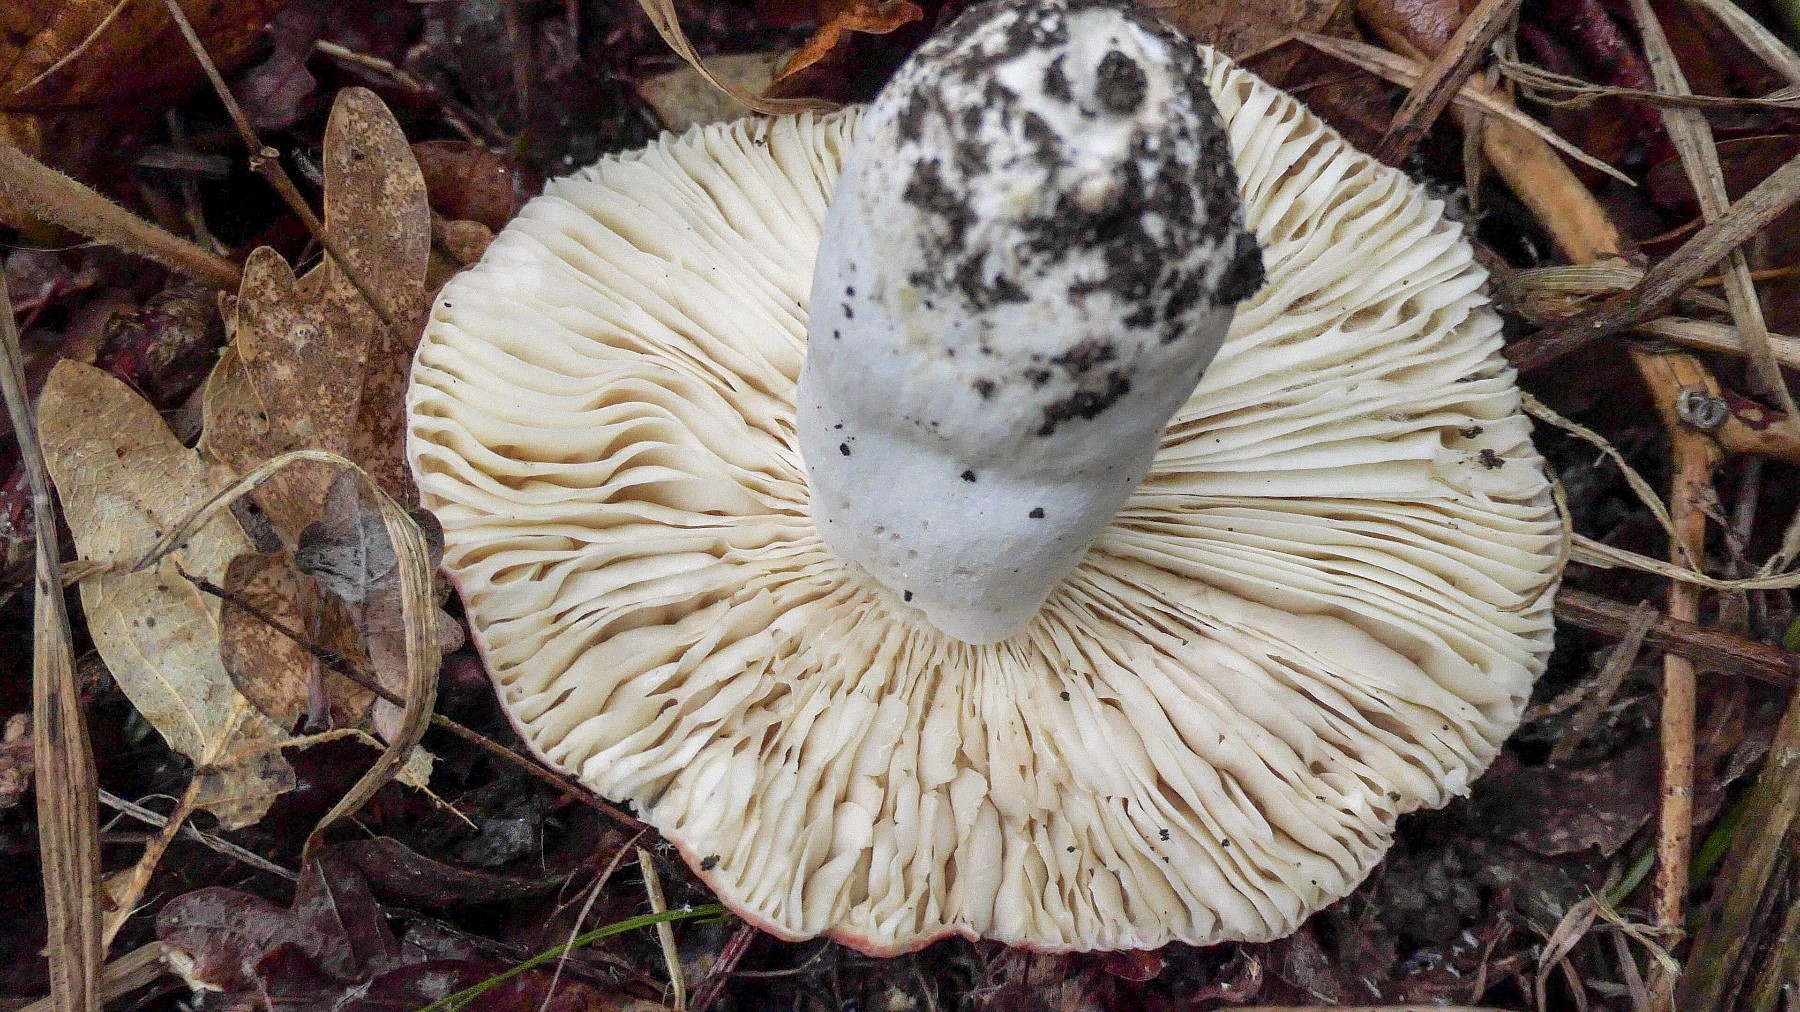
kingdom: Fungi
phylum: Basidiomycota
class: Agaricomycetes
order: Russulales
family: Russulaceae
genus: Russula
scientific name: Russula pseudointegra
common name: cinnoberrød skørhat
